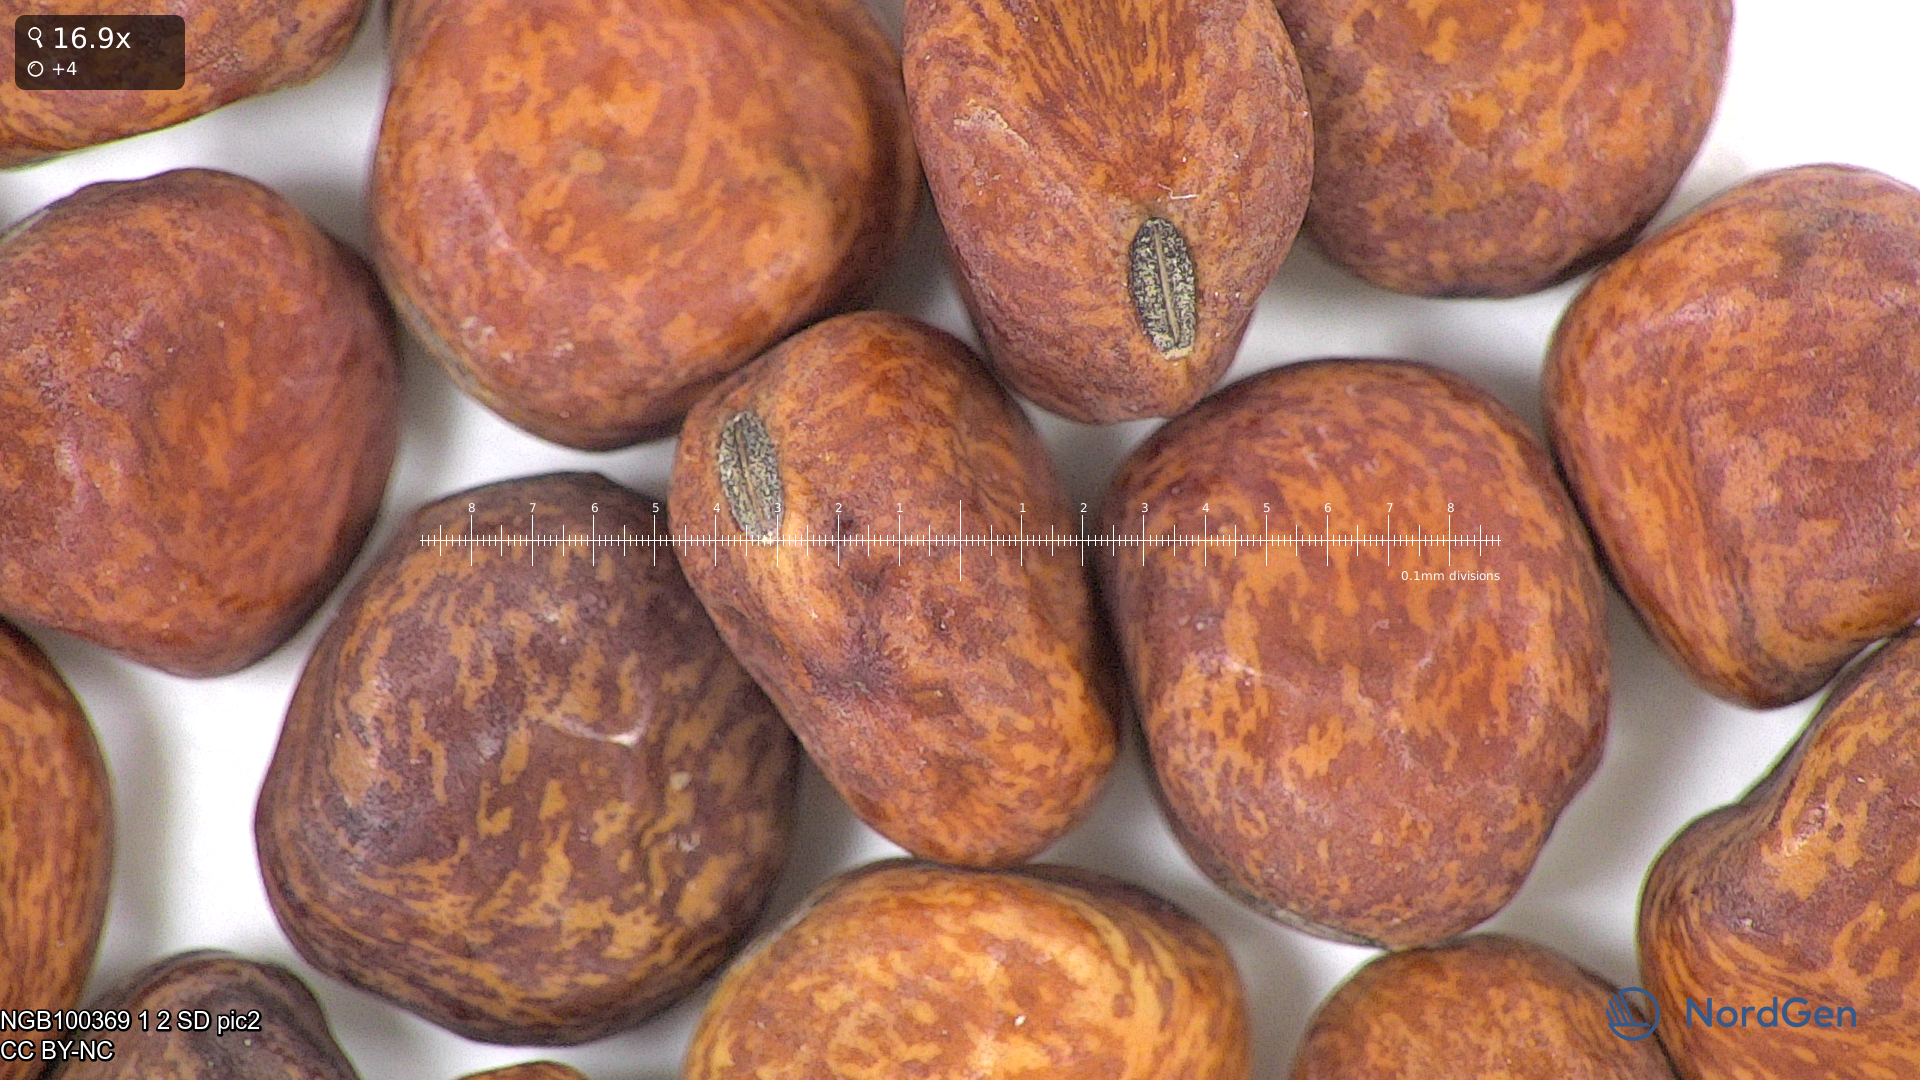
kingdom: Plantae
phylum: Tracheophyta
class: Magnoliopsida
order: Fabales
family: Fabaceae
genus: Lathyrus
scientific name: Lathyrus oleraceus
